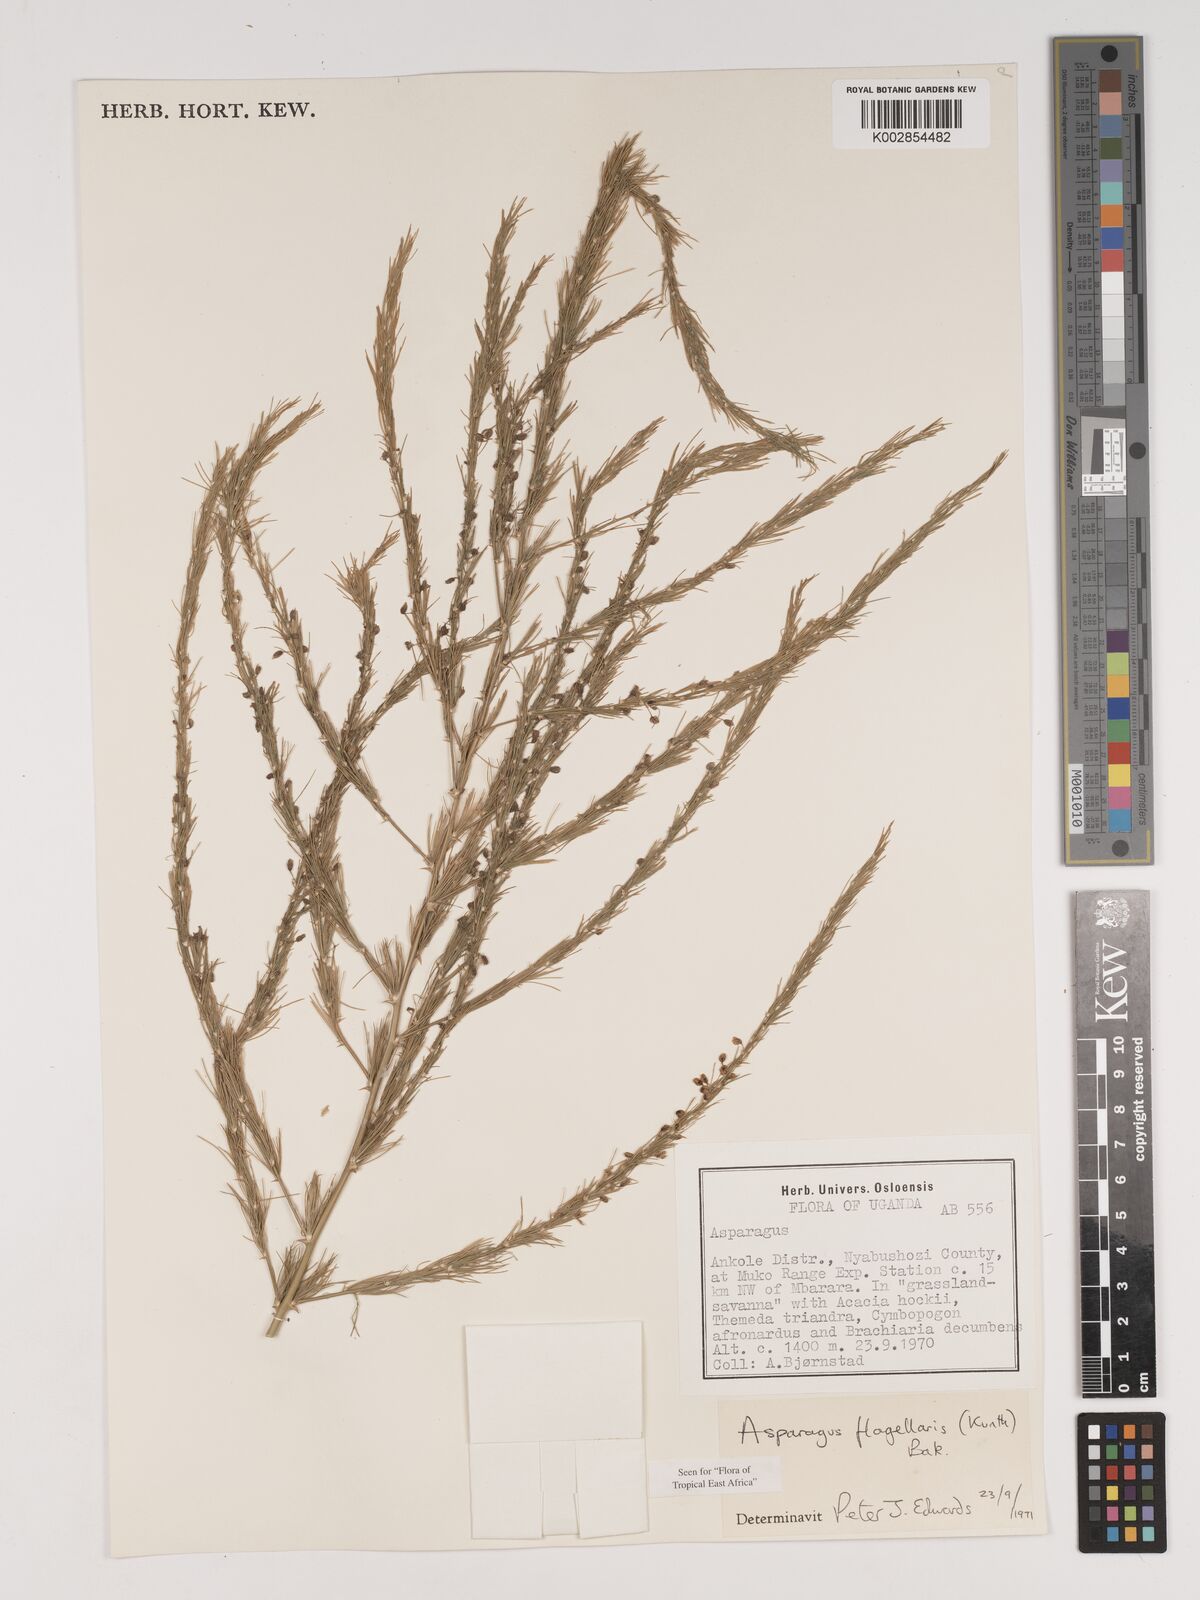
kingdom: Plantae
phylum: Tracheophyta
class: Liliopsida
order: Asparagales
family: Asparagaceae
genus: Asparagus
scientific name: Asparagus flagellaris
